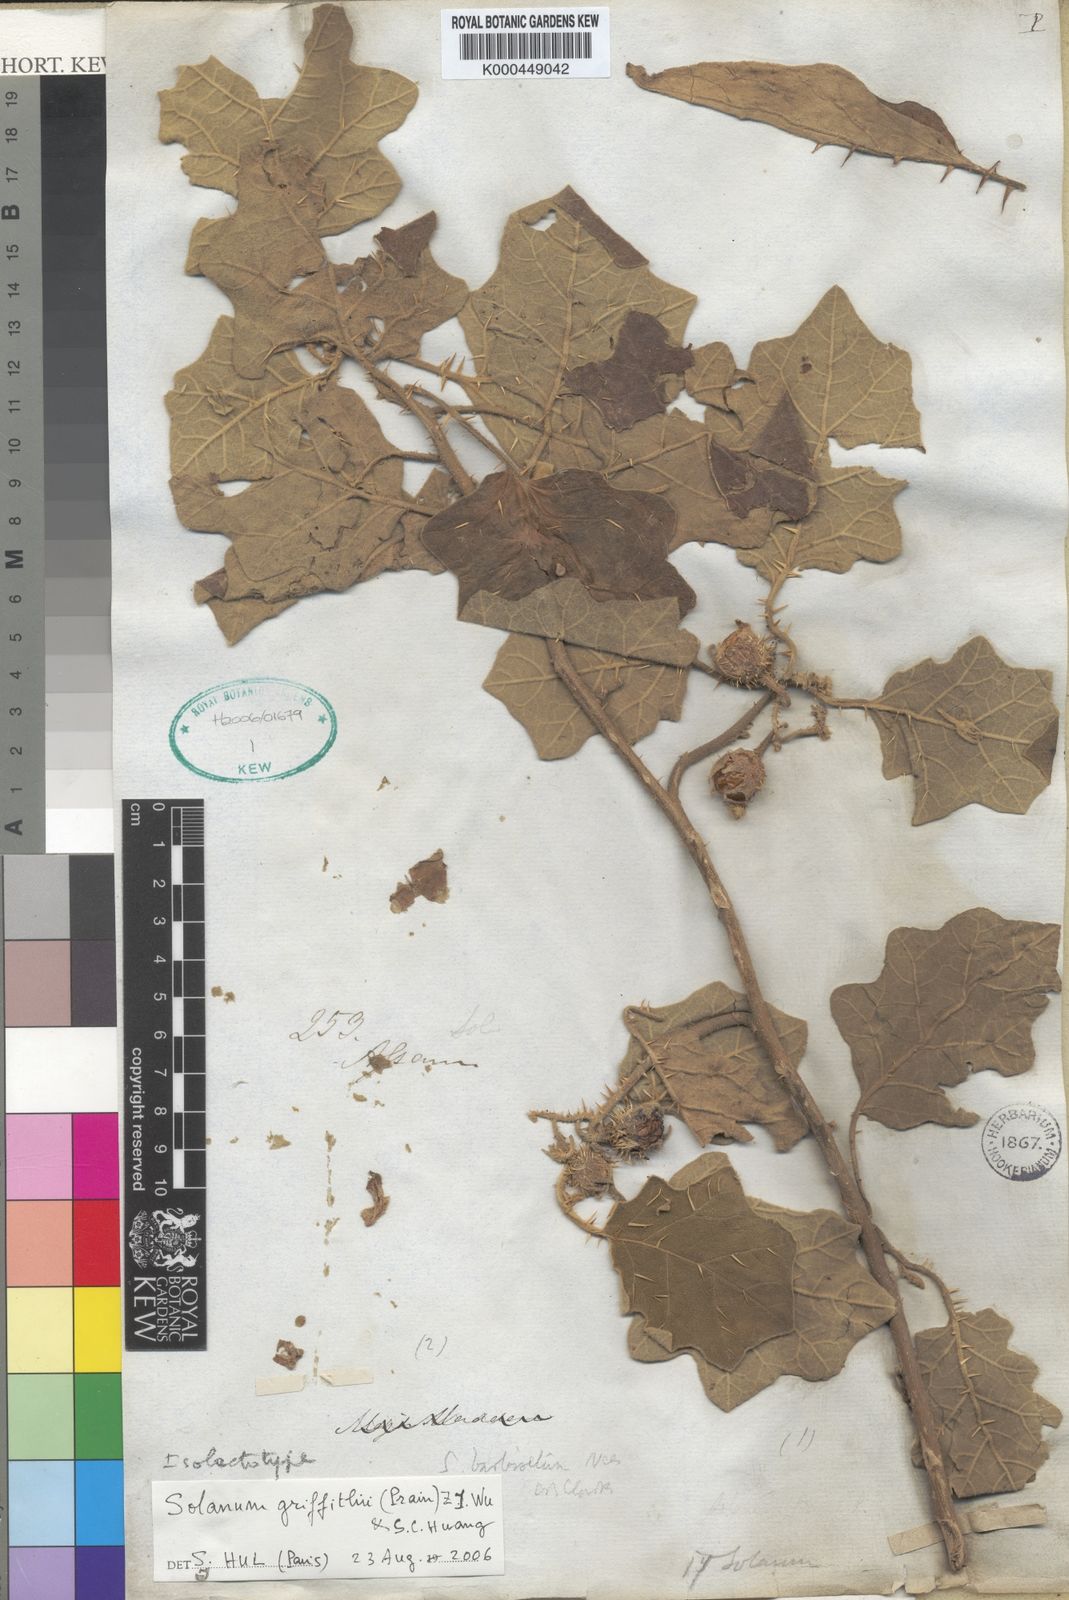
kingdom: Plantae
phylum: Tracheophyta
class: Magnoliopsida
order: Solanales
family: Solanaceae
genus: Solanum
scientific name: Solanum praetermissum
